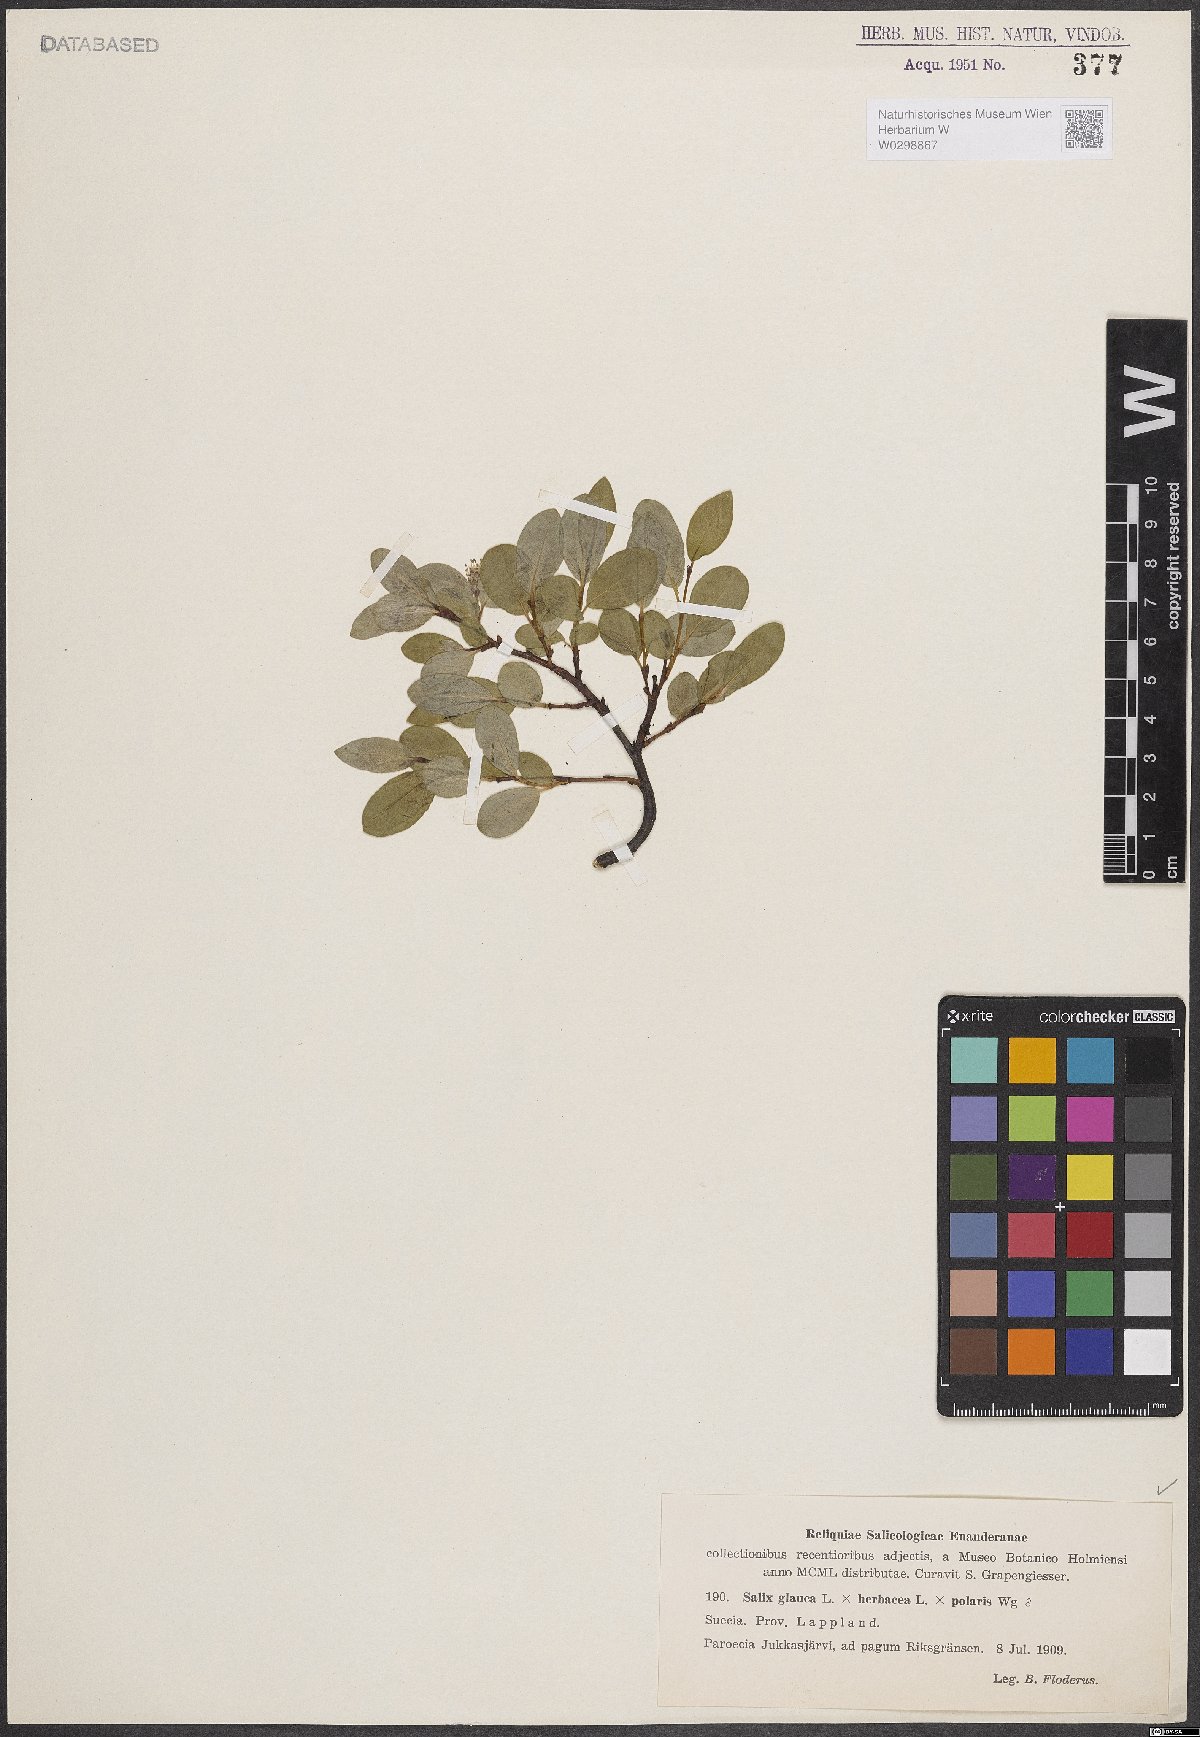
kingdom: Plantae
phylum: Tracheophyta
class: Magnoliopsida
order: Malpighiales
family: Salicaceae
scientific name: Salicaceae
